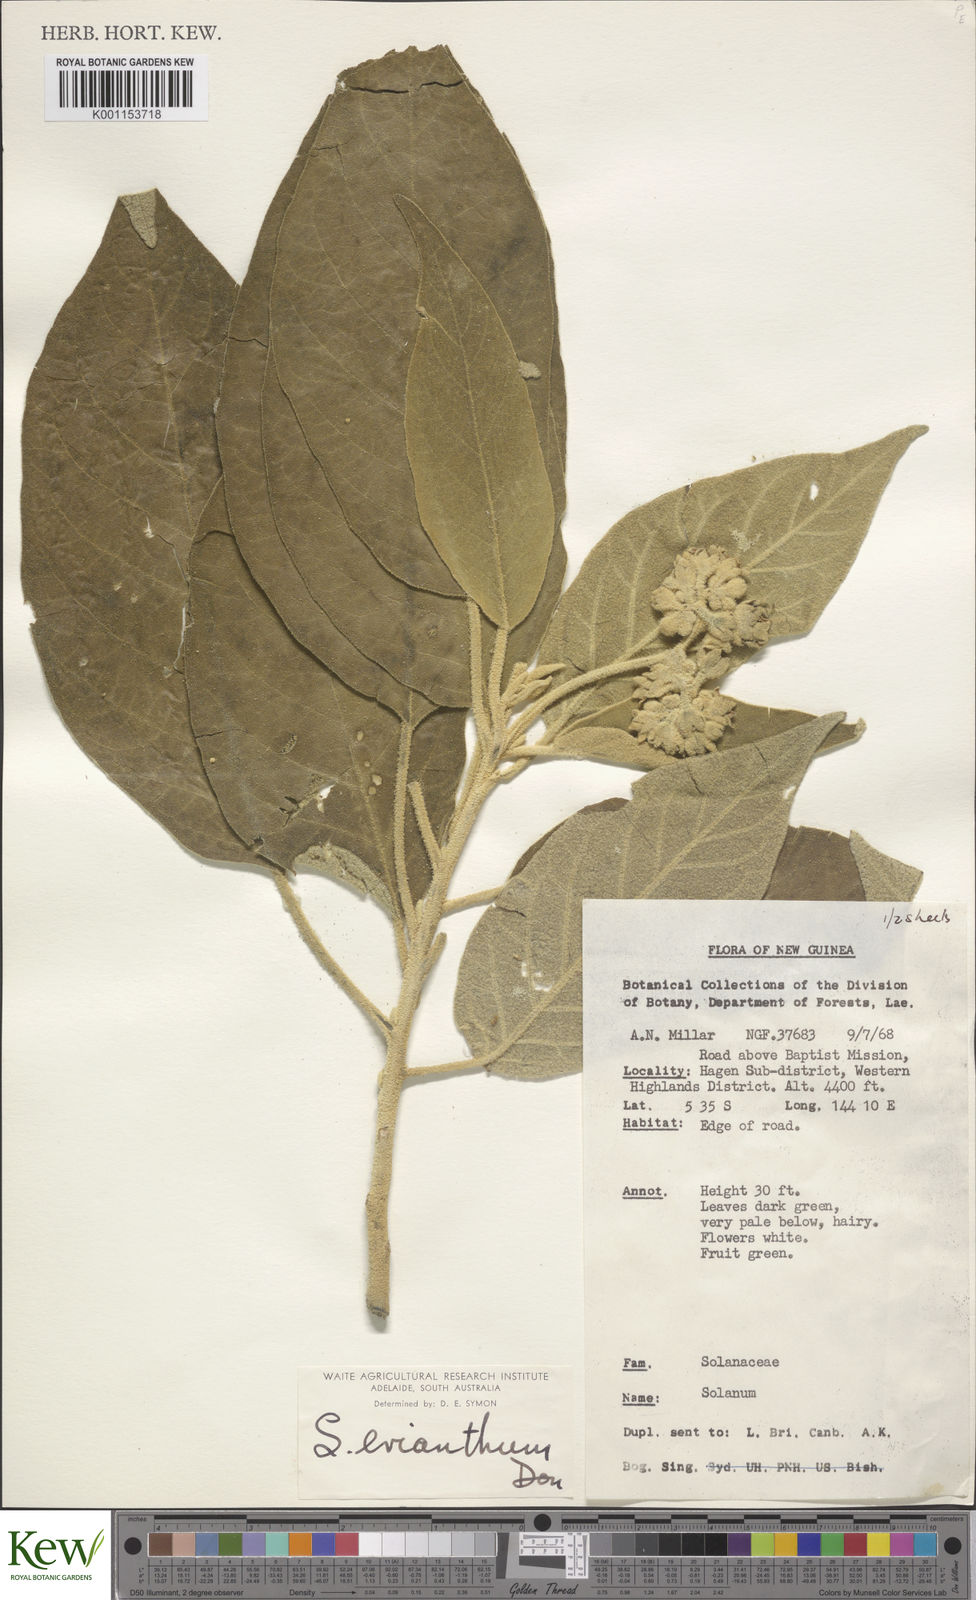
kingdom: Plantae
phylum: Tracheophyta
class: Magnoliopsida
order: Solanales
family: Solanaceae
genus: Solanum
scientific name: Solanum erianthum
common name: Tobacco-tree
